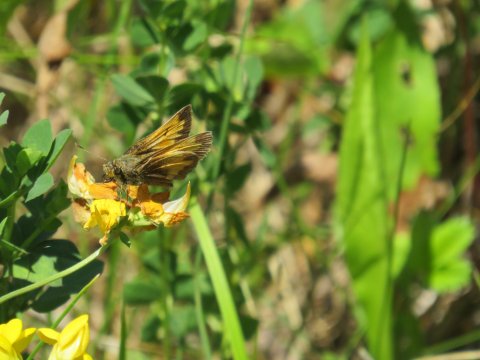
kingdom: Animalia
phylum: Arthropoda
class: Insecta
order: Lepidoptera
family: Hesperiidae
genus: Lon
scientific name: Lon hobomok
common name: Hobomok Skipper
